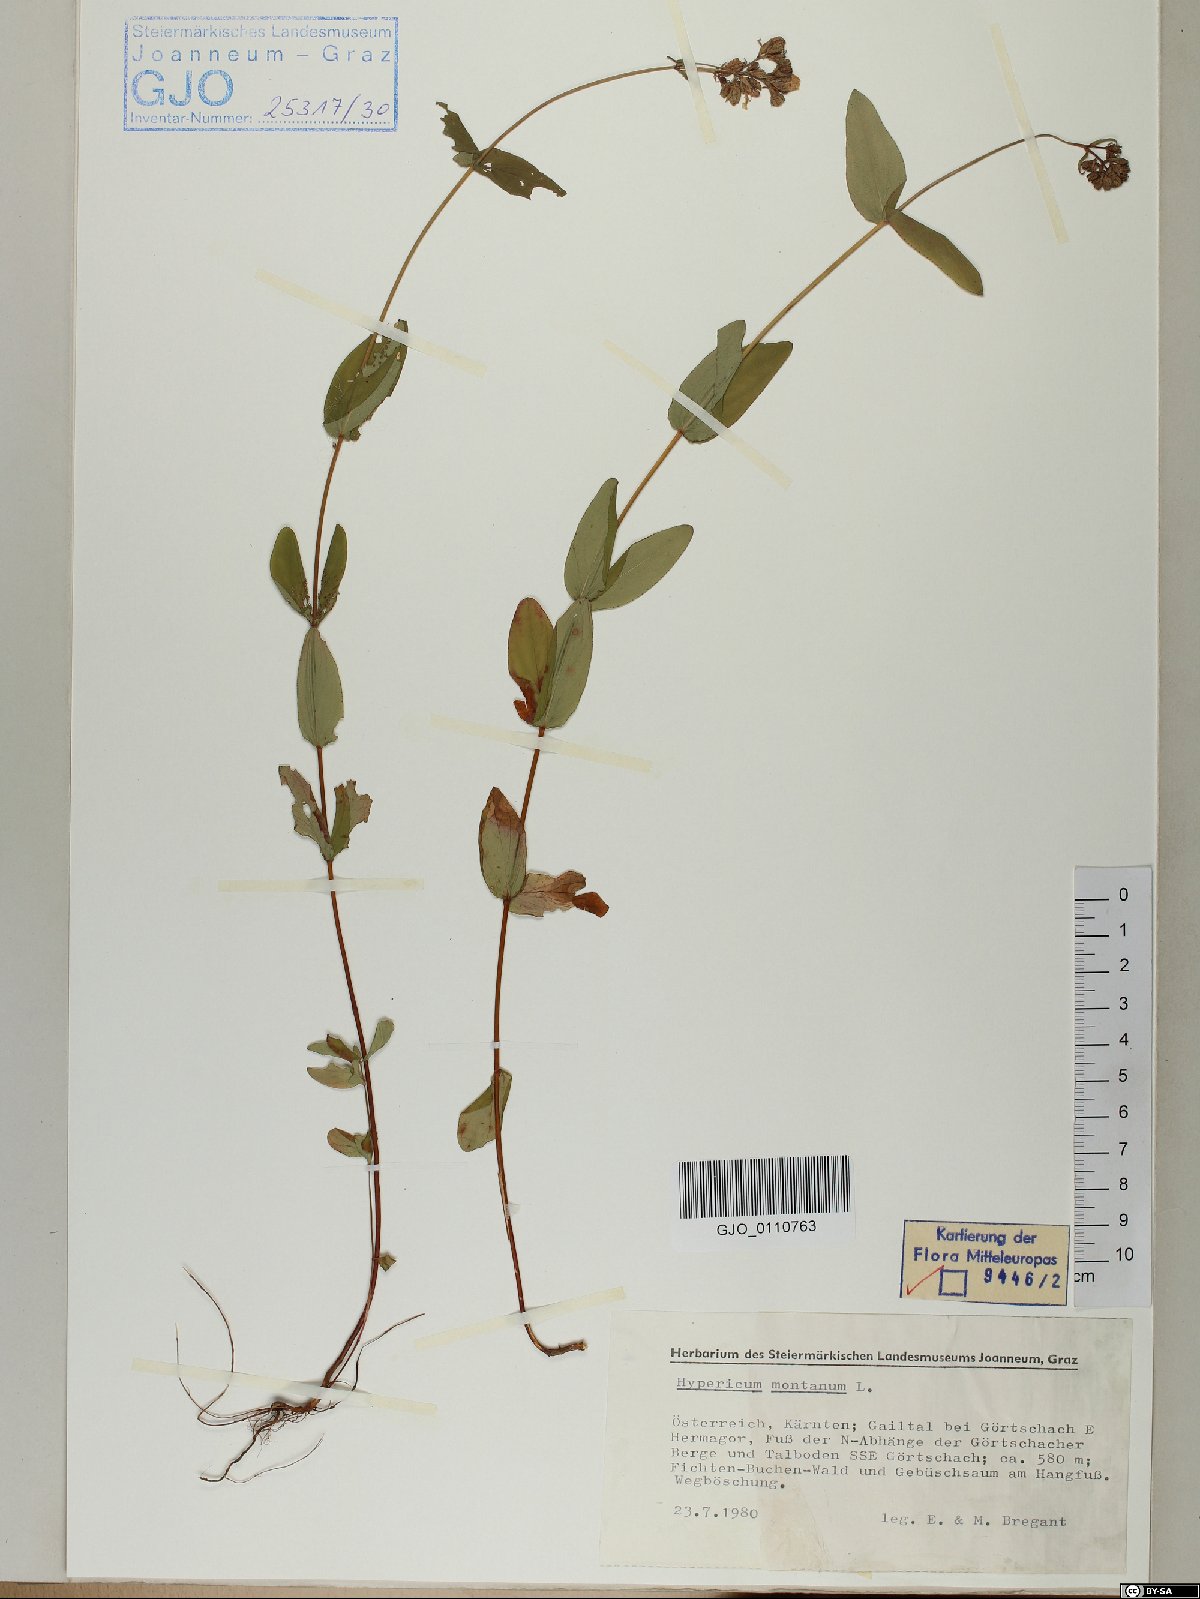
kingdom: Plantae
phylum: Tracheophyta
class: Magnoliopsida
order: Malpighiales
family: Hypericaceae
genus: Hypericum
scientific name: Hypericum montanum
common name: Pale st. john's-wort
